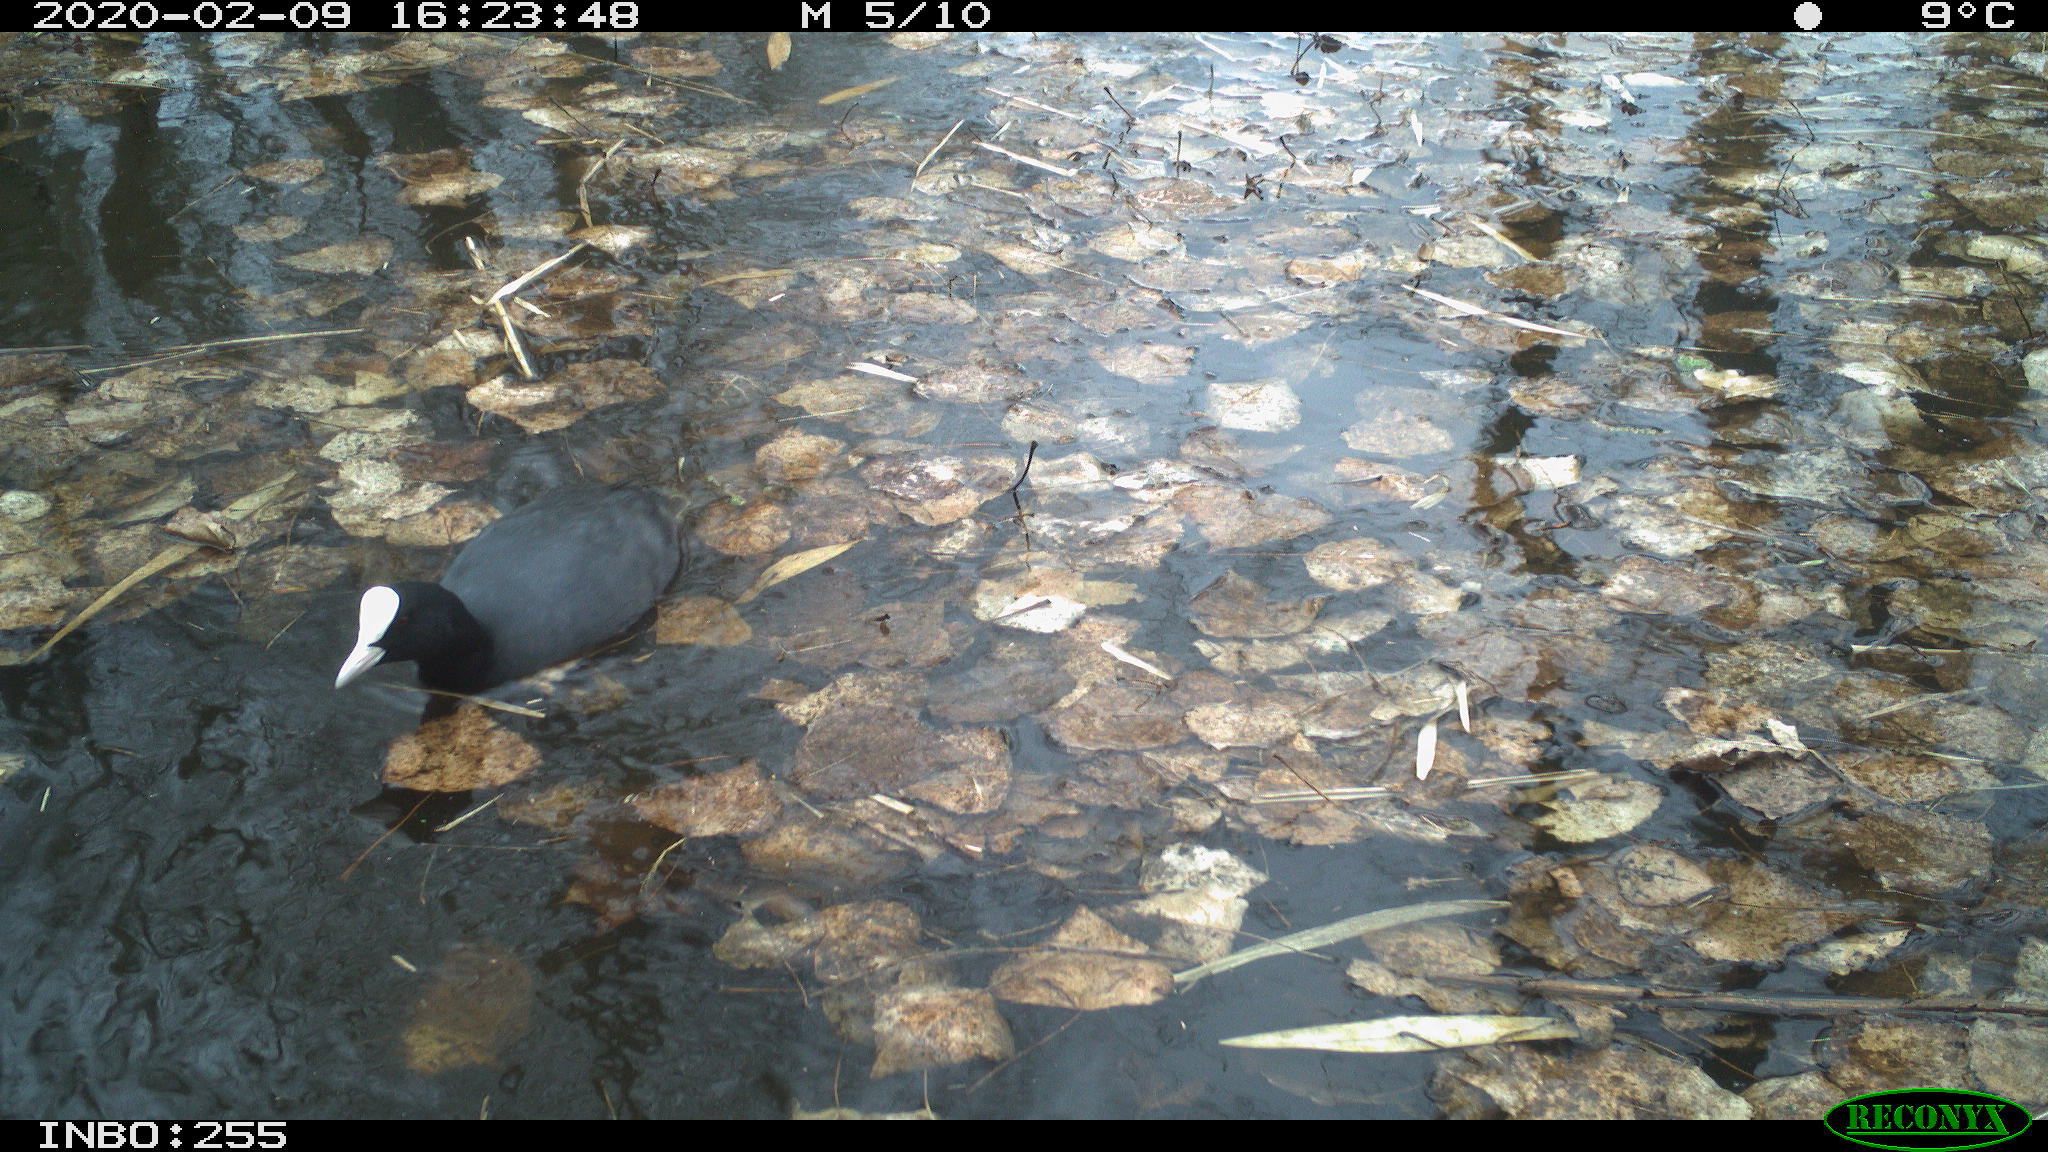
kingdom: Animalia
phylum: Chordata
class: Aves
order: Gruiformes
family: Rallidae
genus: Fulica
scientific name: Fulica atra
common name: Eurasian coot
